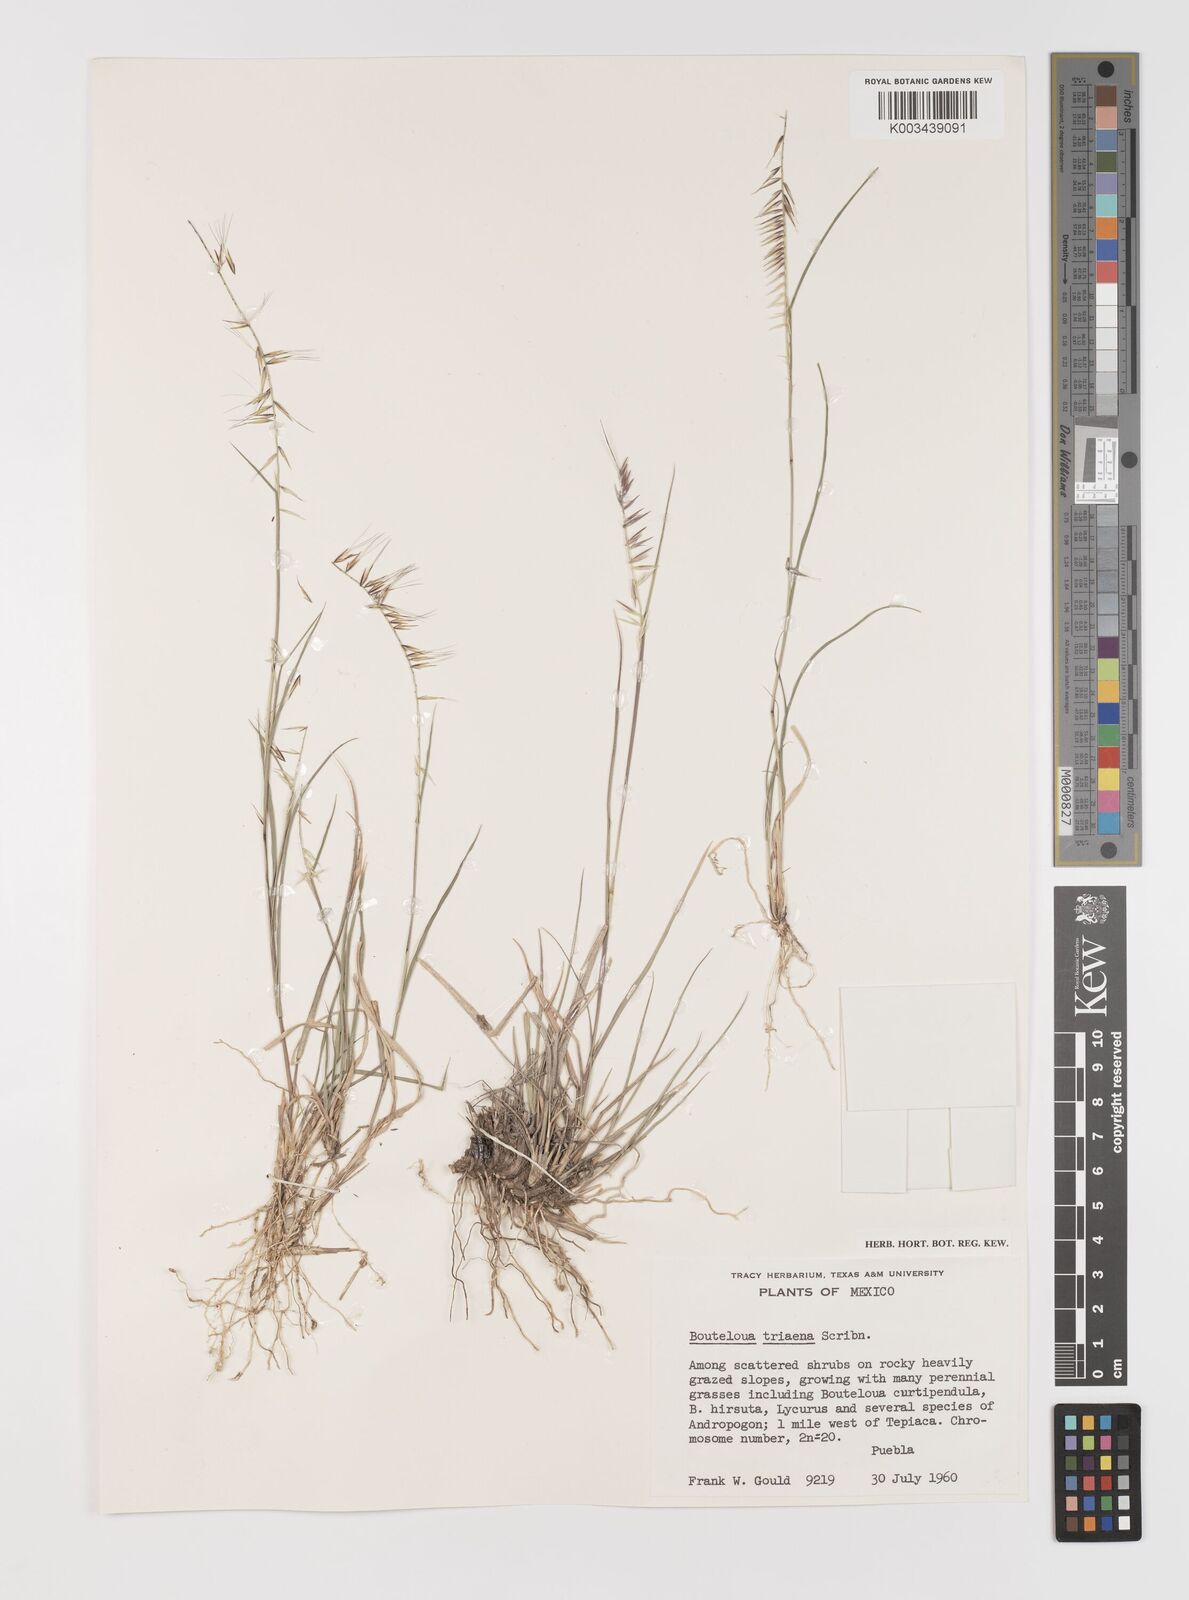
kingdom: Plantae
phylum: Tracheophyta
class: Liliopsida
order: Poales
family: Poaceae
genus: Bouteloua
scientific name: Bouteloua triaena
